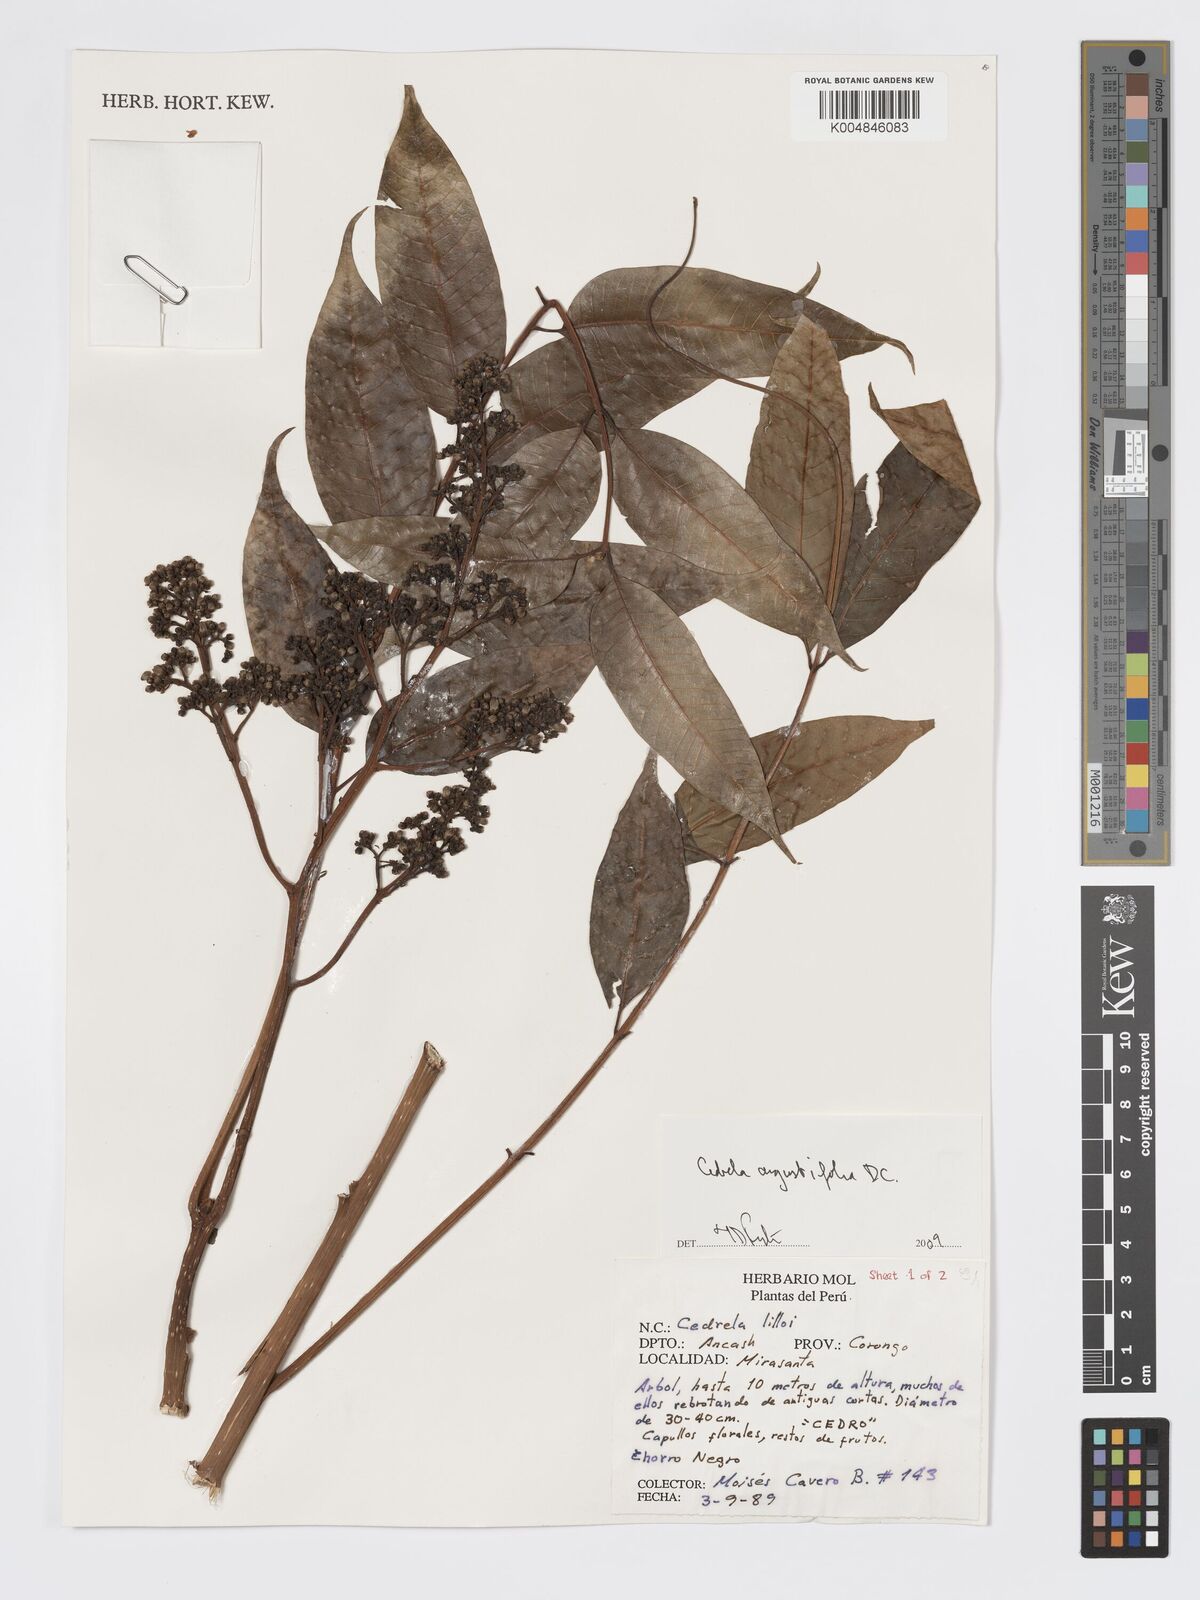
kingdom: Plantae
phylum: Tracheophyta
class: Magnoliopsida
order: Sapindales
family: Meliaceae
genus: Cedrela
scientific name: Cedrela odorata
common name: Red cedar
